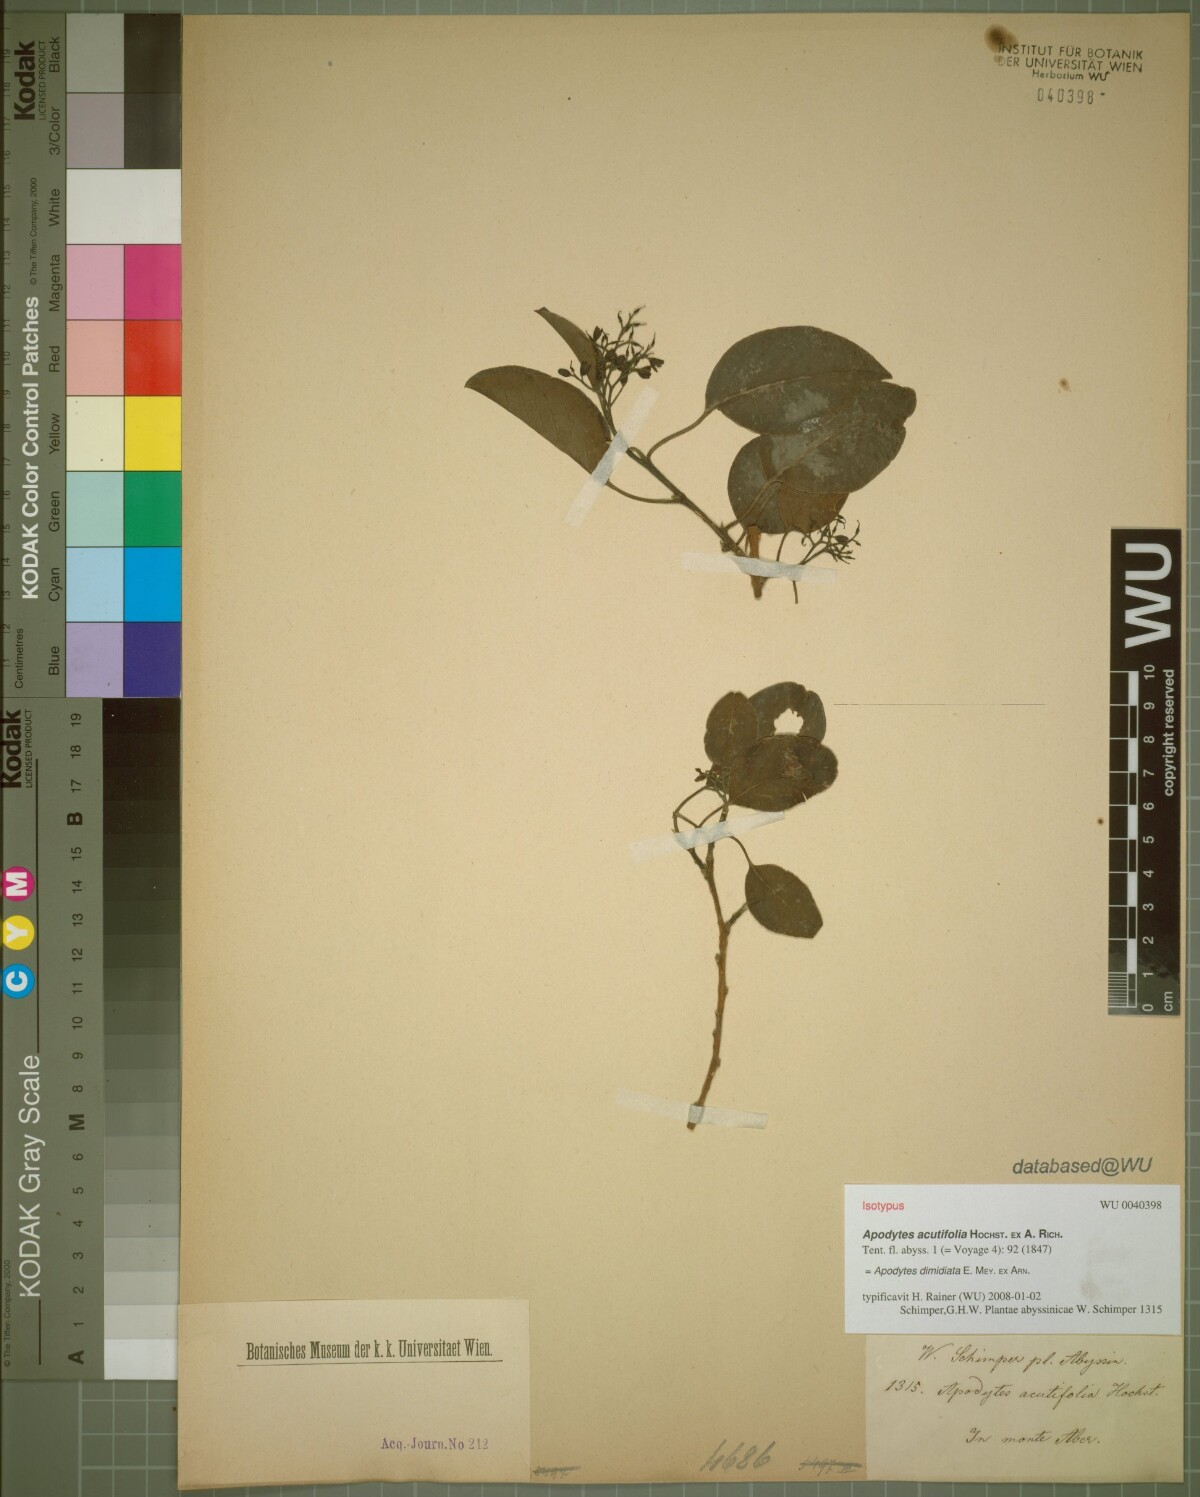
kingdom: Plantae
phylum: Tracheophyta
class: Magnoliopsida
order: Metteniusales
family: Metteniusaceae
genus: Apodytes
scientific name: Apodytes dimidiata
